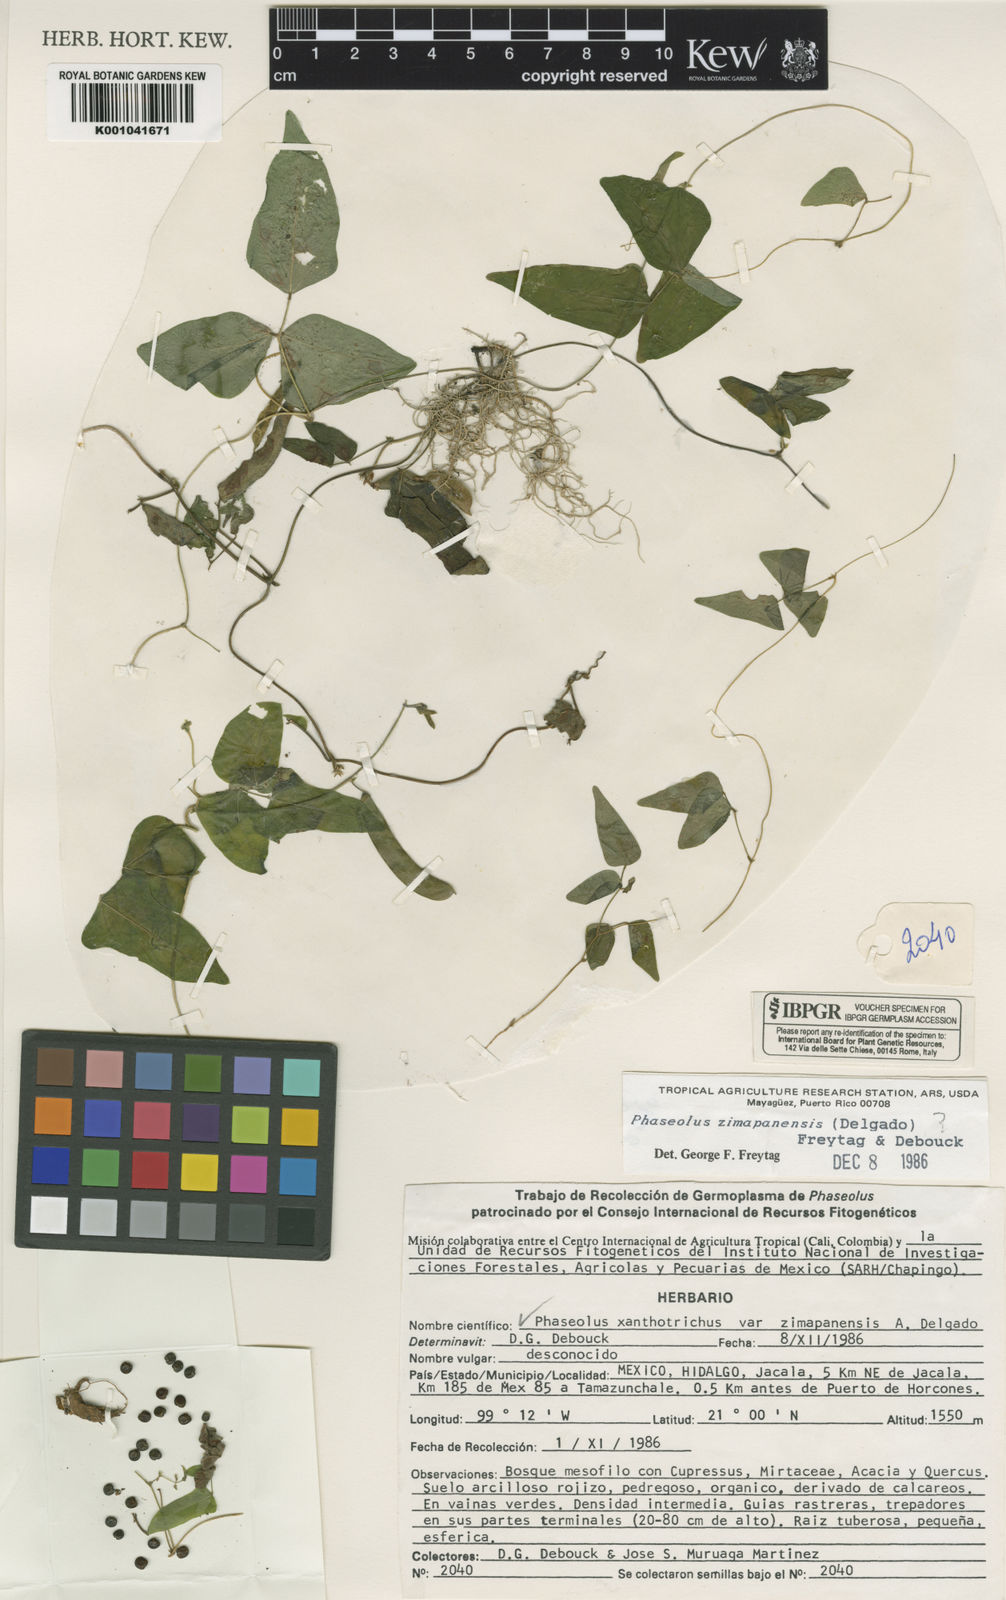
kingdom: Plantae
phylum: Tracheophyta
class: Magnoliopsida
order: Fabales
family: Fabaceae
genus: Phaseolus
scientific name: Phaseolus xanthotrichus
